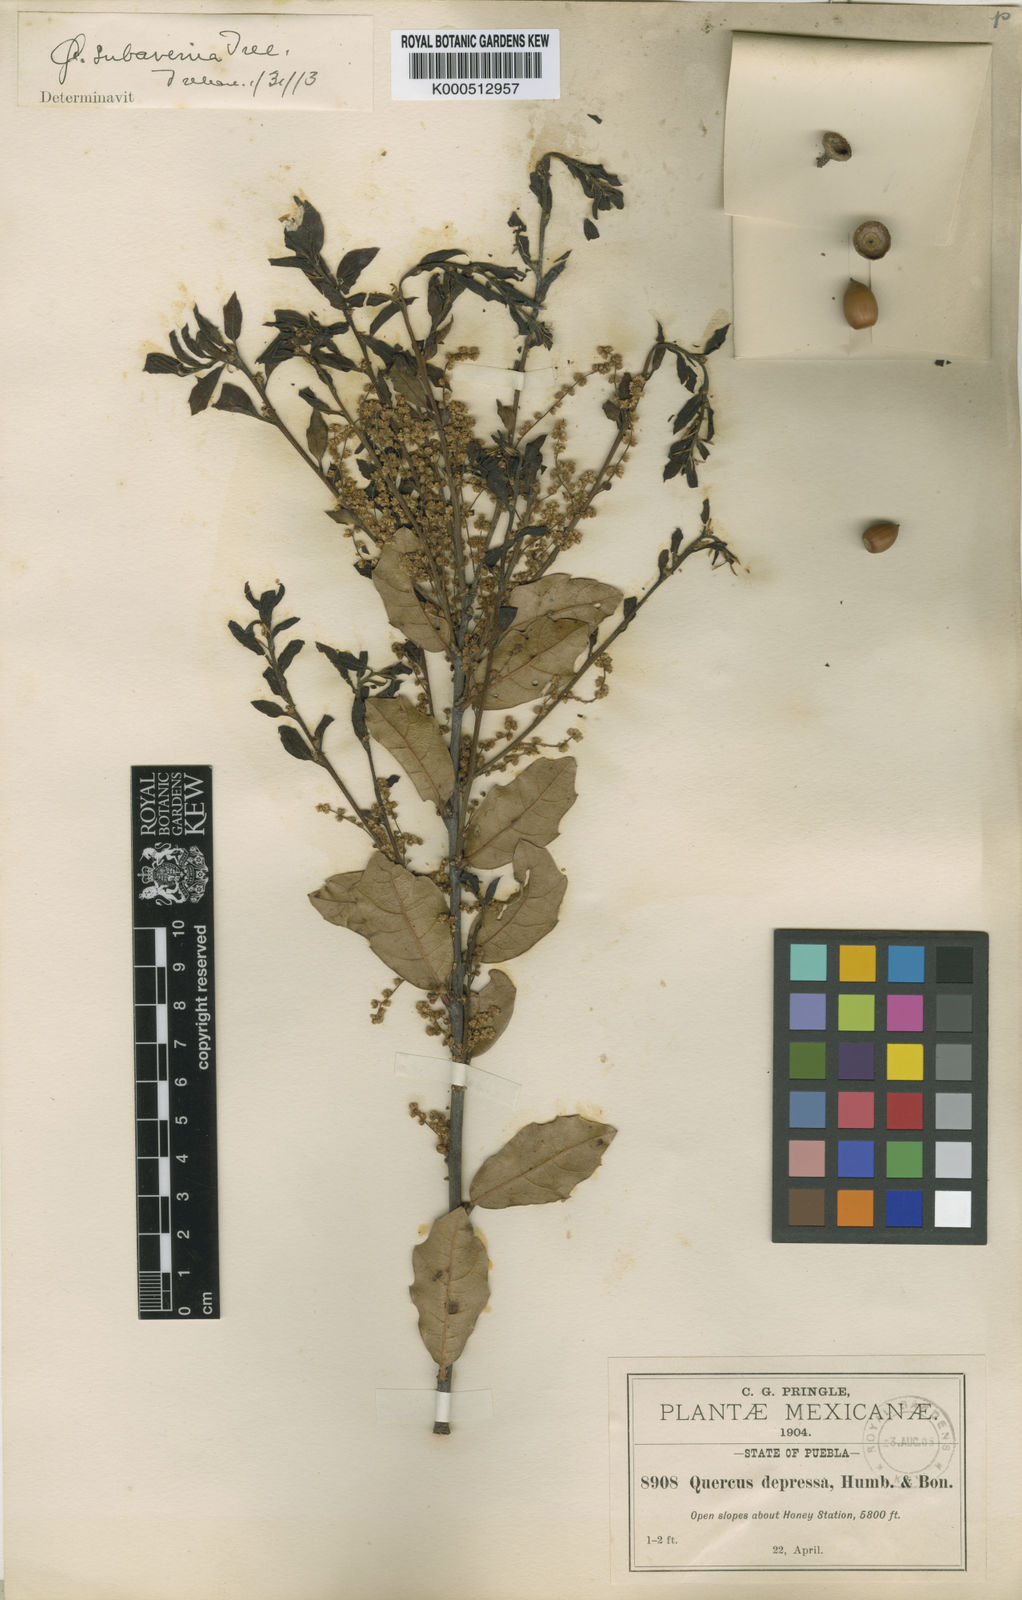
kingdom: Plantae
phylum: Tracheophyta
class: Magnoliopsida
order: Fagales
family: Fagaceae
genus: Quercus
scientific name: Quercus depressa
